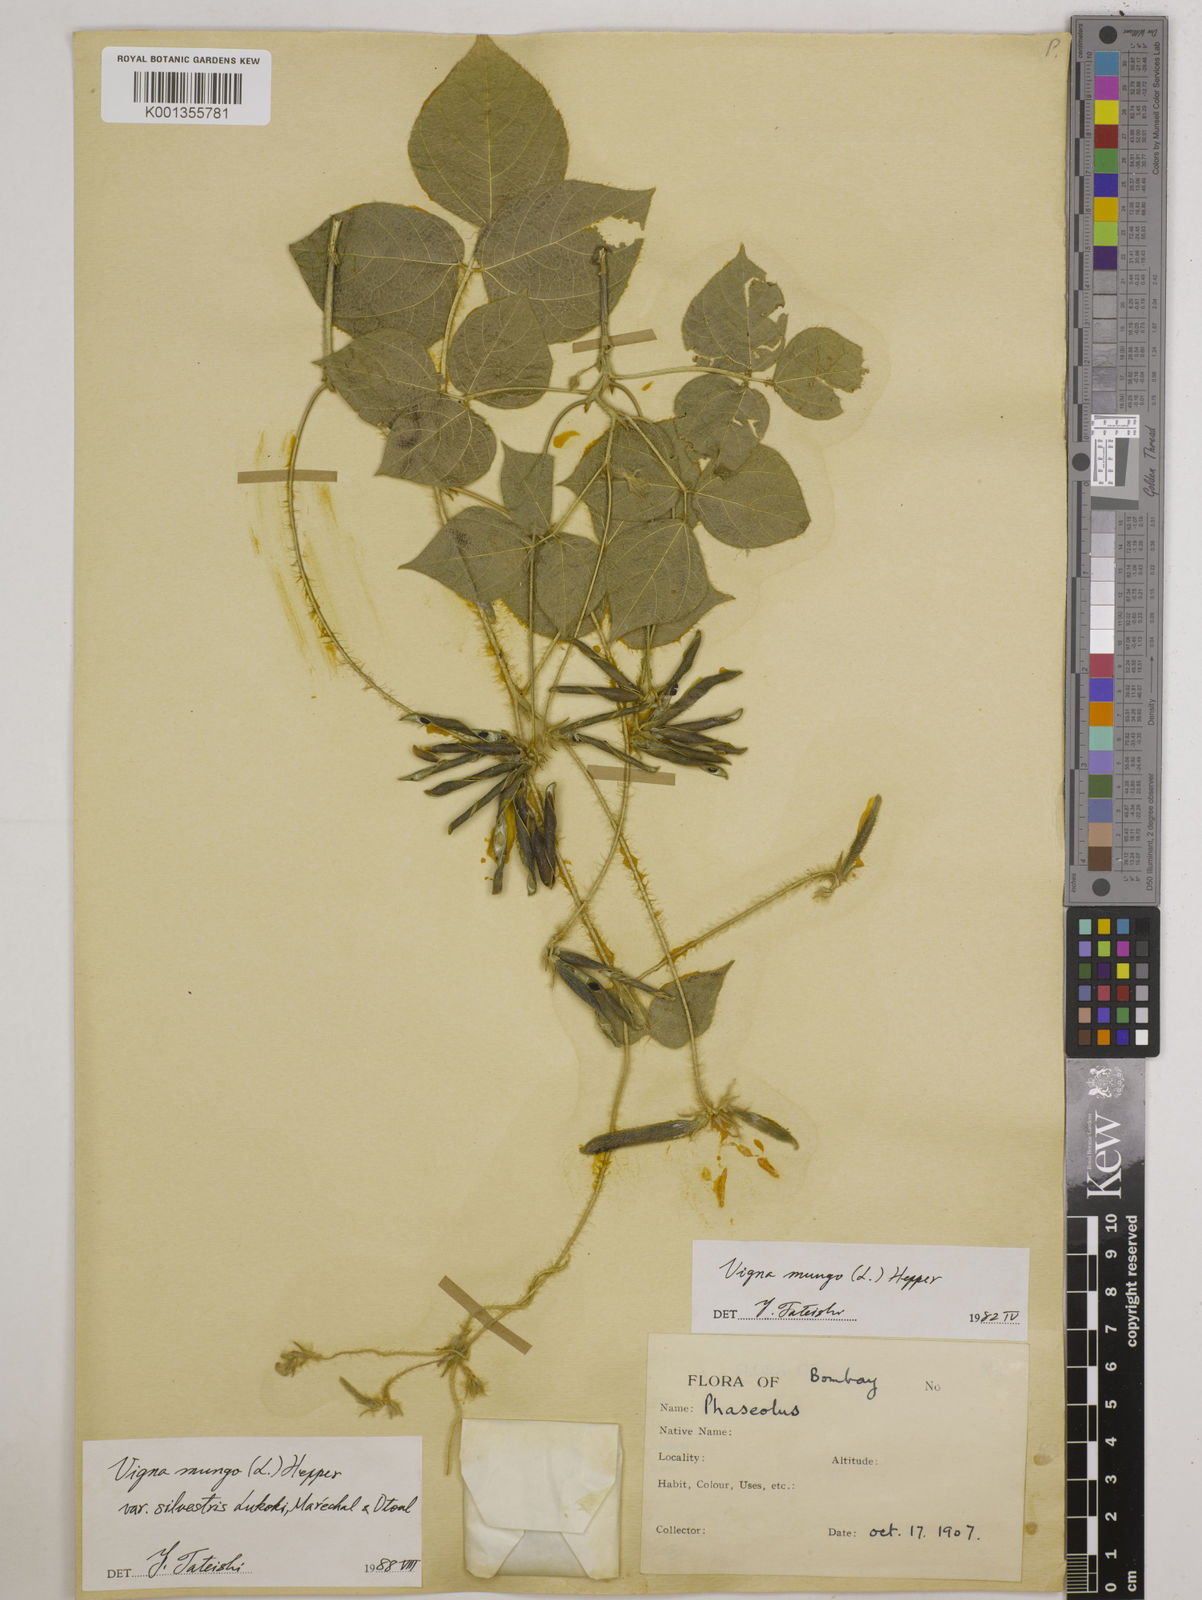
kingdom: Plantae
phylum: Tracheophyta
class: Magnoliopsida
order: Fabales
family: Fabaceae
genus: Vigna
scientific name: Vigna mungo
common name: Black gram
